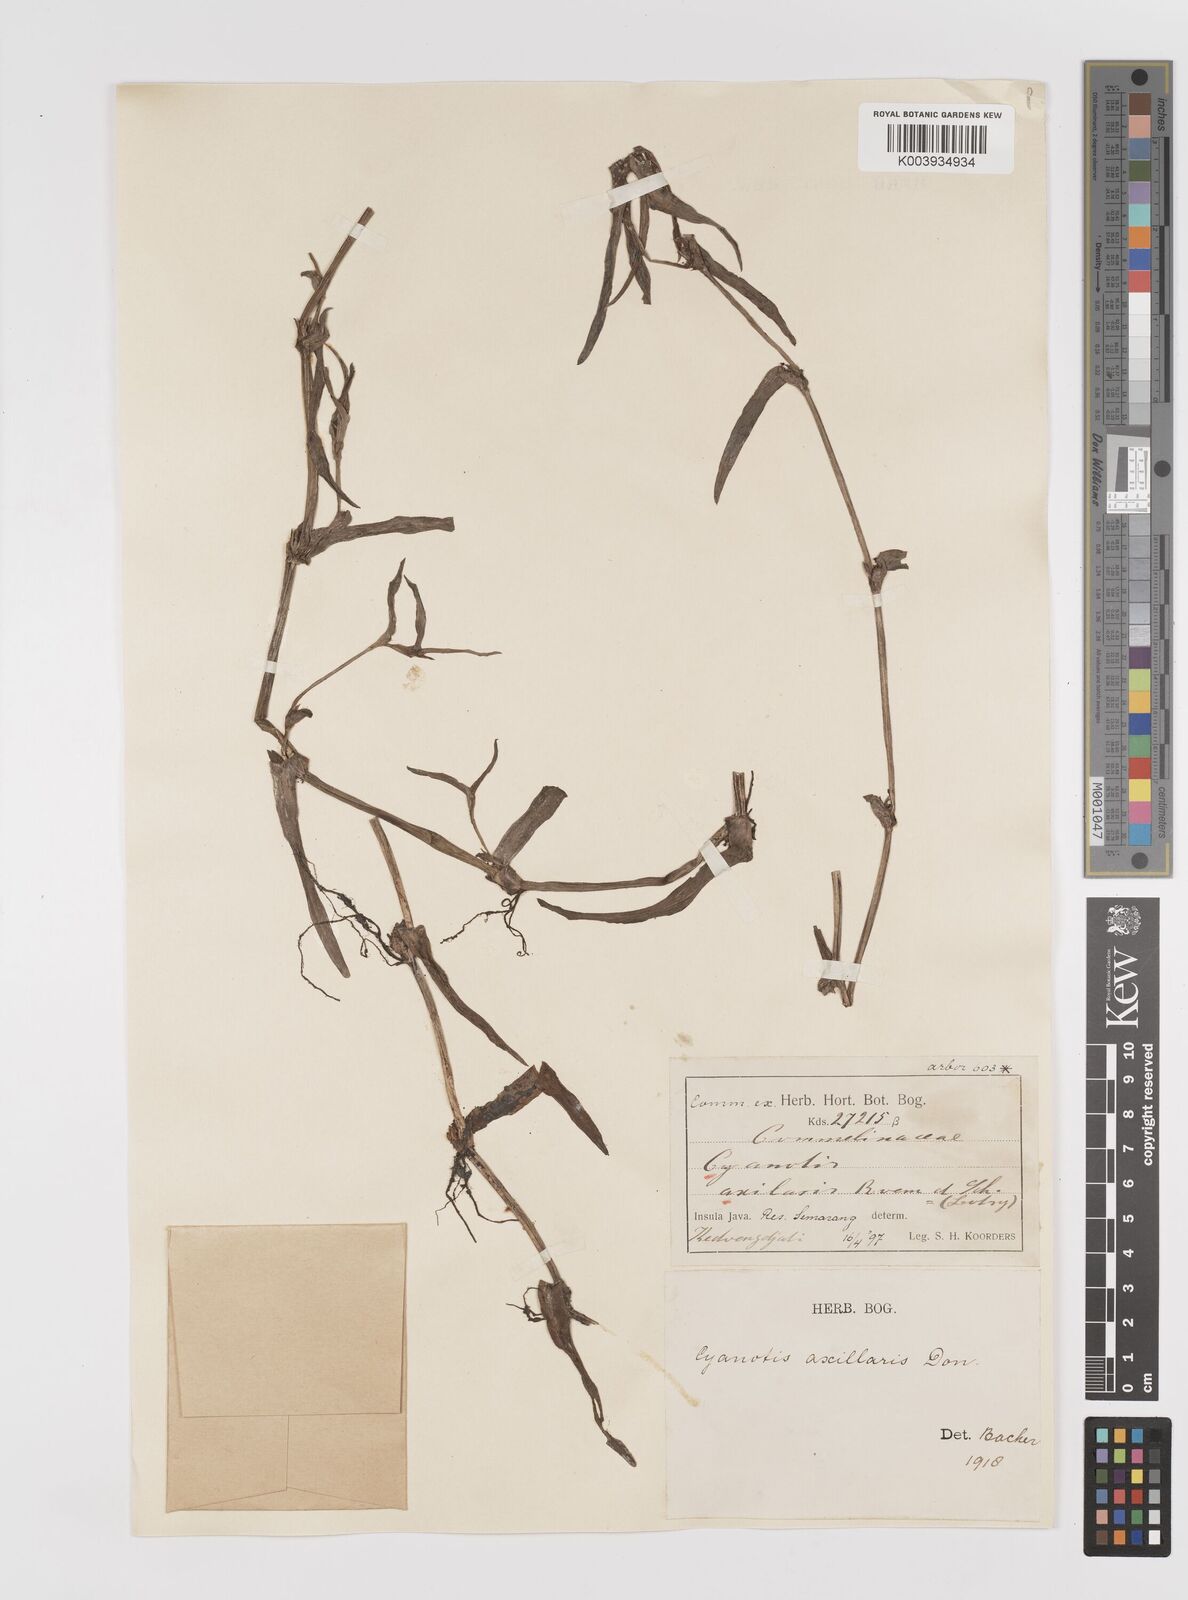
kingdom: Plantae
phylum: Tracheophyta
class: Liliopsida
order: Commelinales
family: Commelinaceae
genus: Cyanotis
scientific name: Cyanotis axillaris
